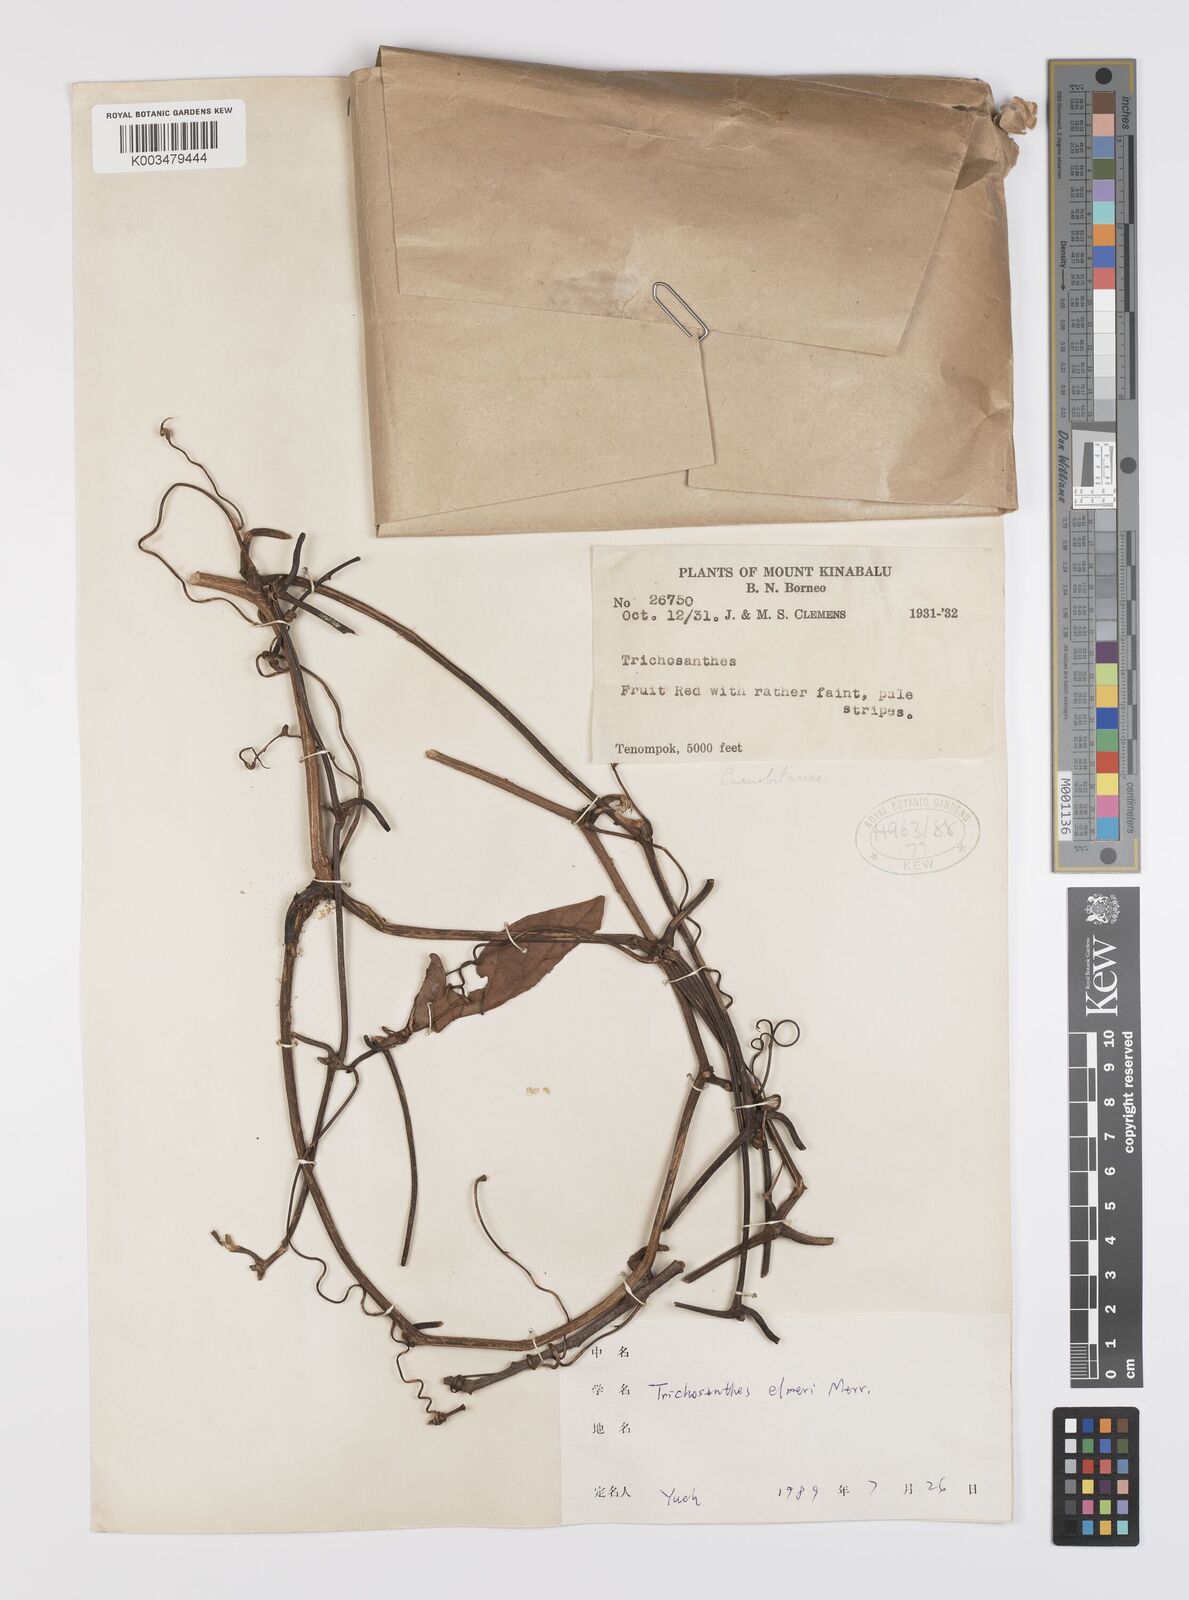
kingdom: Plantae
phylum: Tracheophyta
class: Magnoliopsida
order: Cucurbitales
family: Cucurbitaceae
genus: Trichosanthes
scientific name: Trichosanthes elmeri
